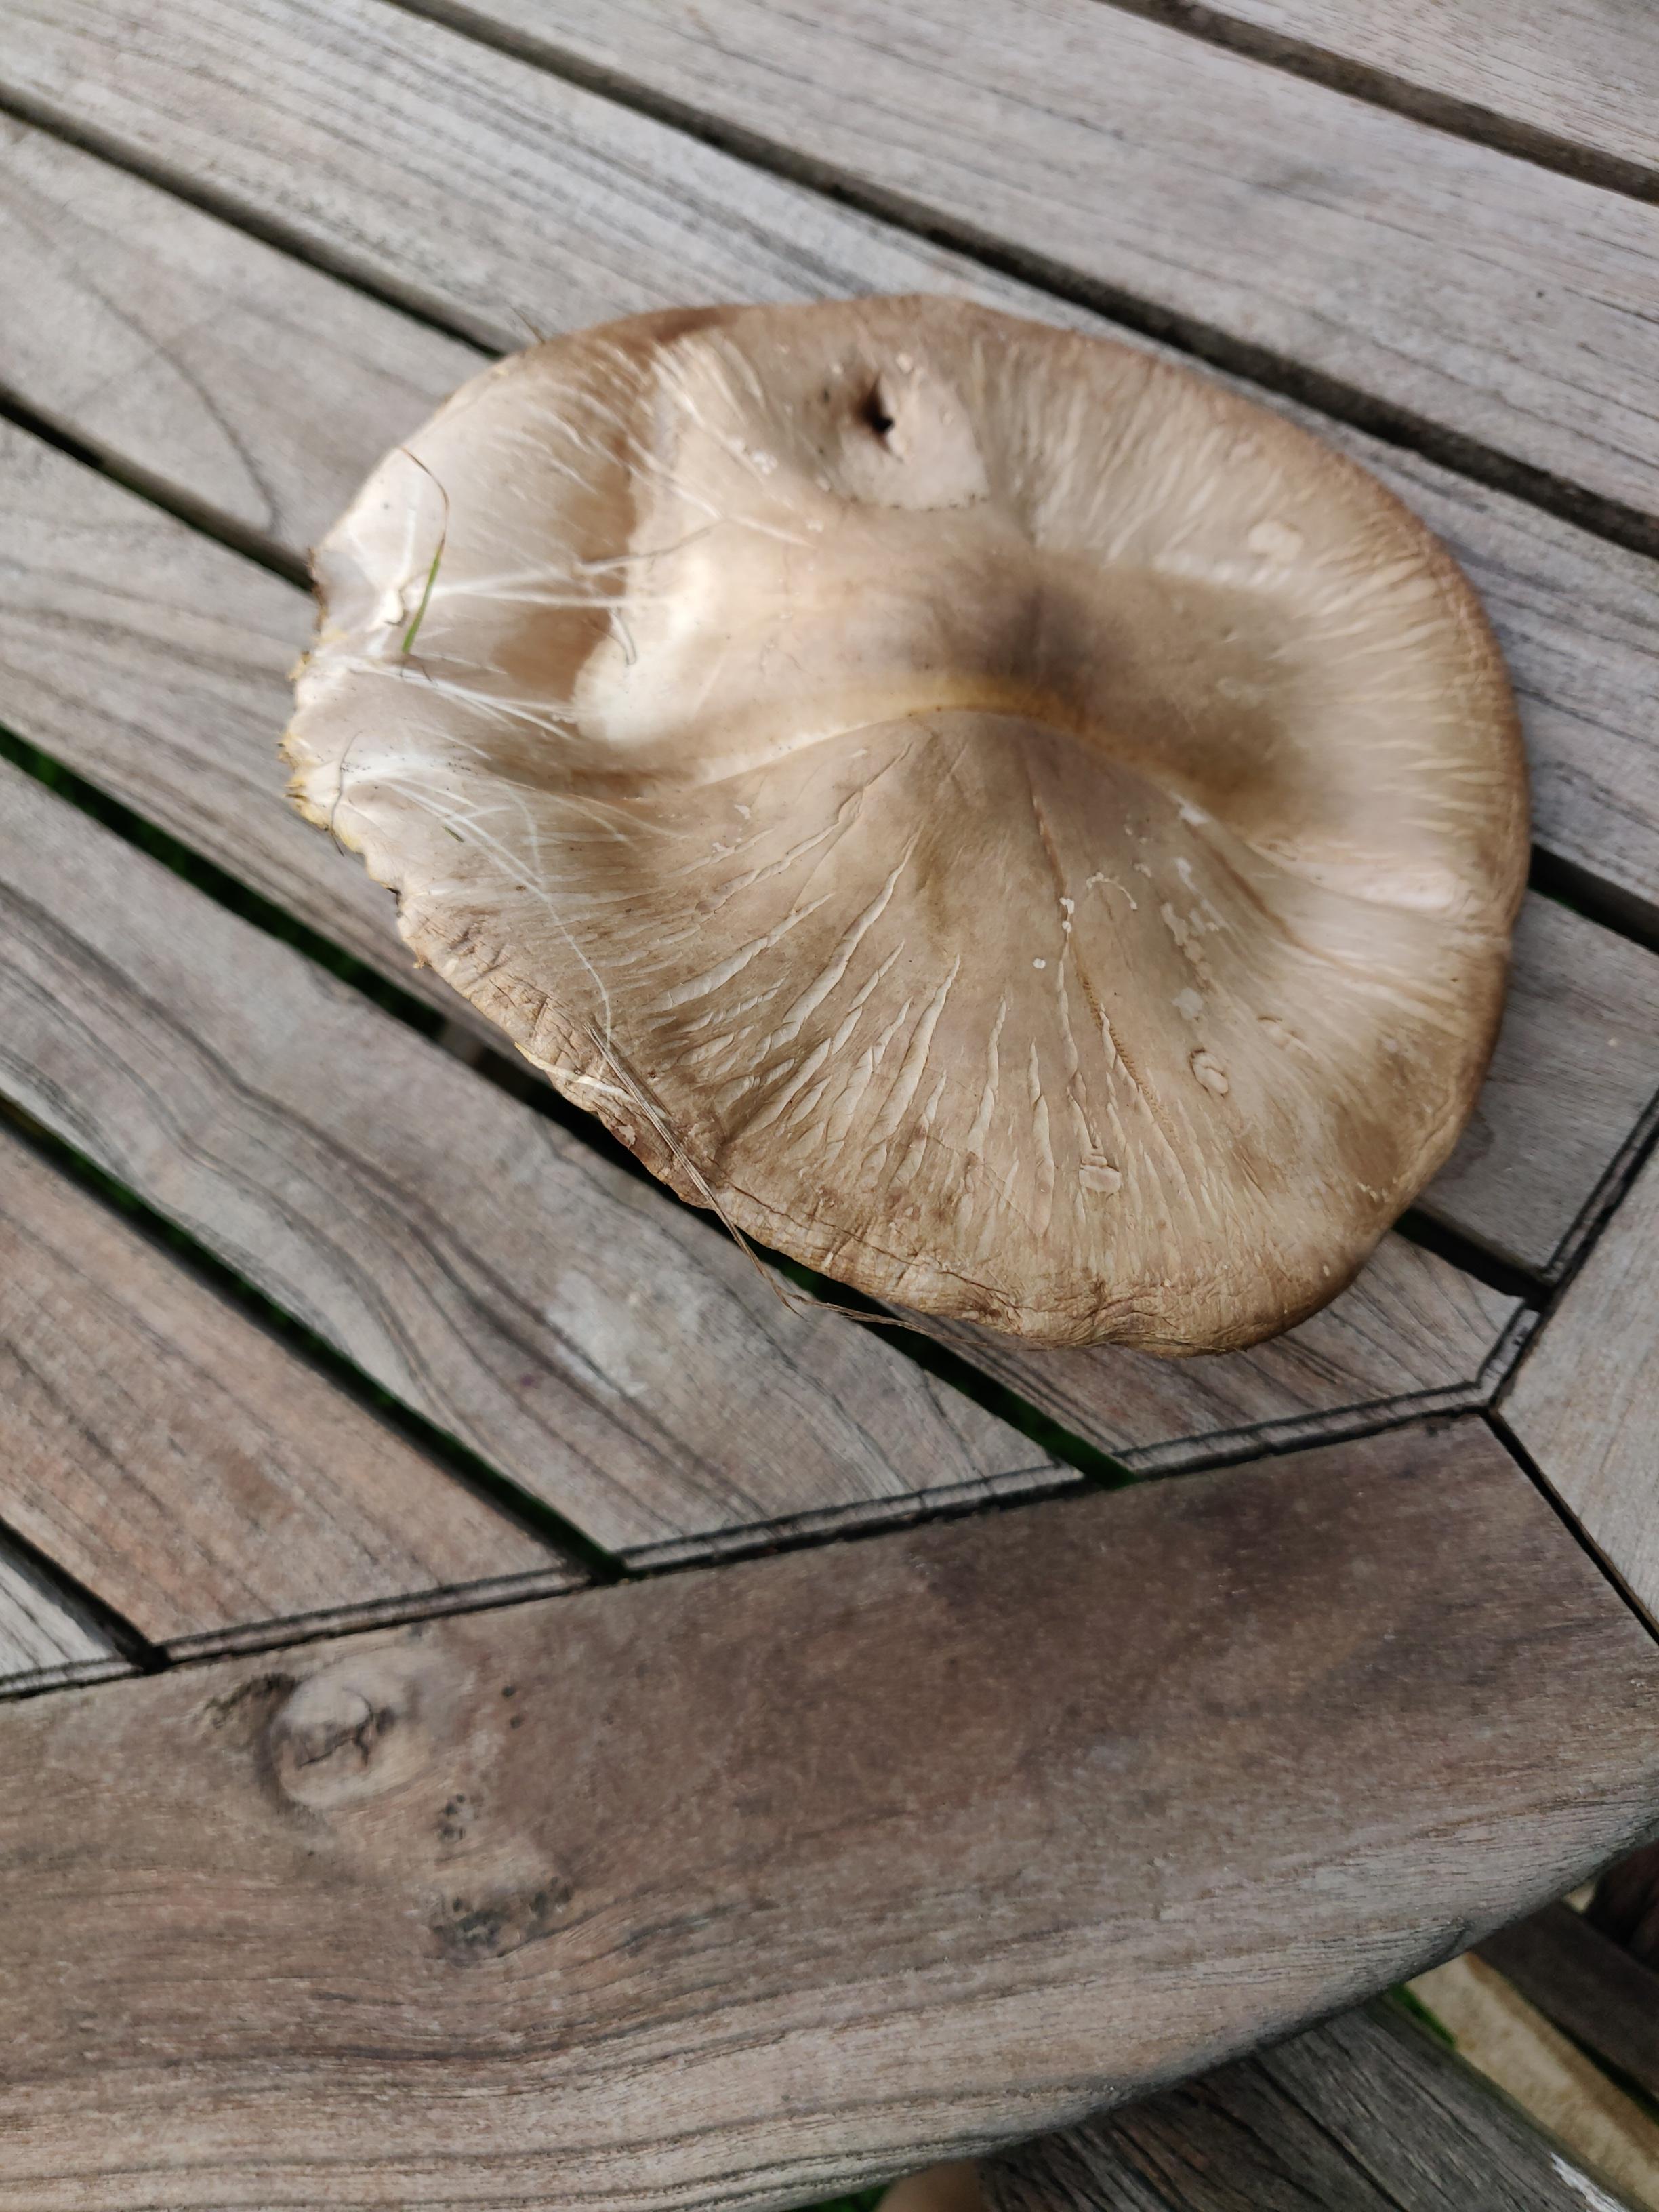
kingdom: Fungi
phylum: Basidiomycota
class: Agaricomycetes
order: Agaricales
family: Agaricaceae
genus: Agaricus
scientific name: Agaricus
